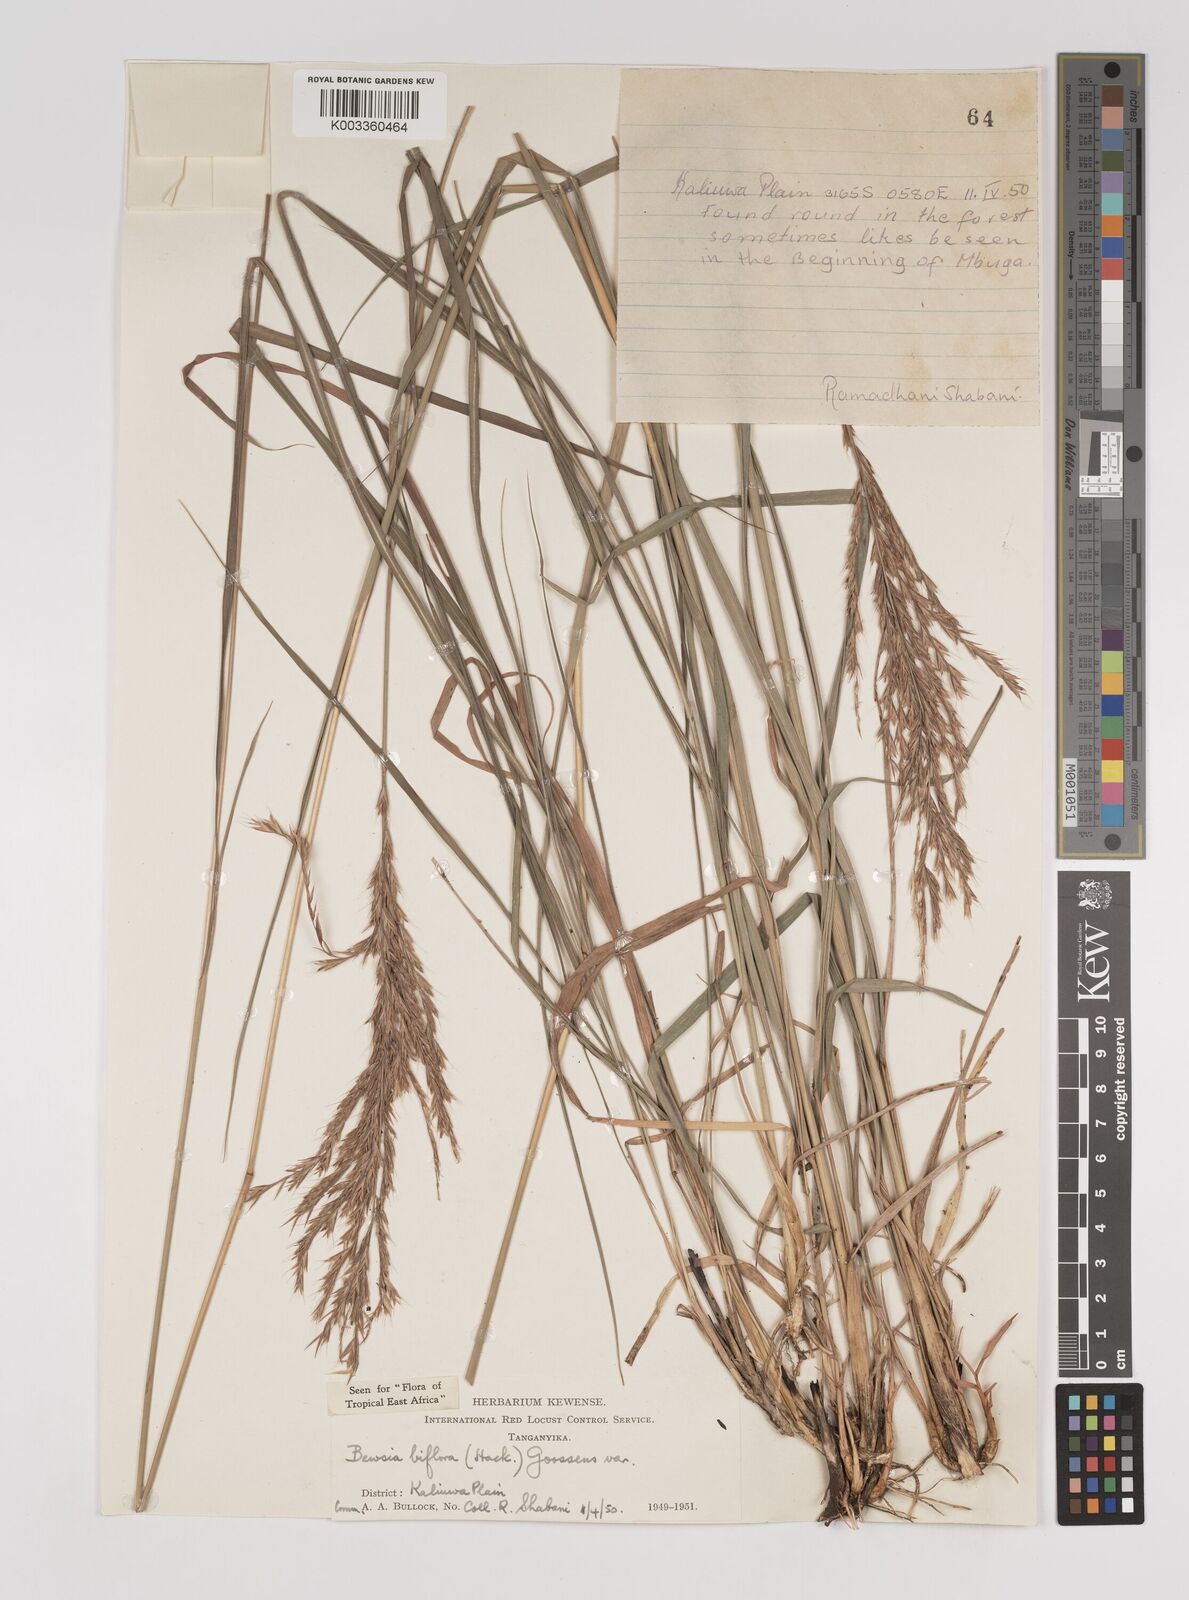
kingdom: Plantae
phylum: Tracheophyta
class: Liliopsida
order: Poales
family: Poaceae
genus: Bewsia
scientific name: Bewsia biflora
